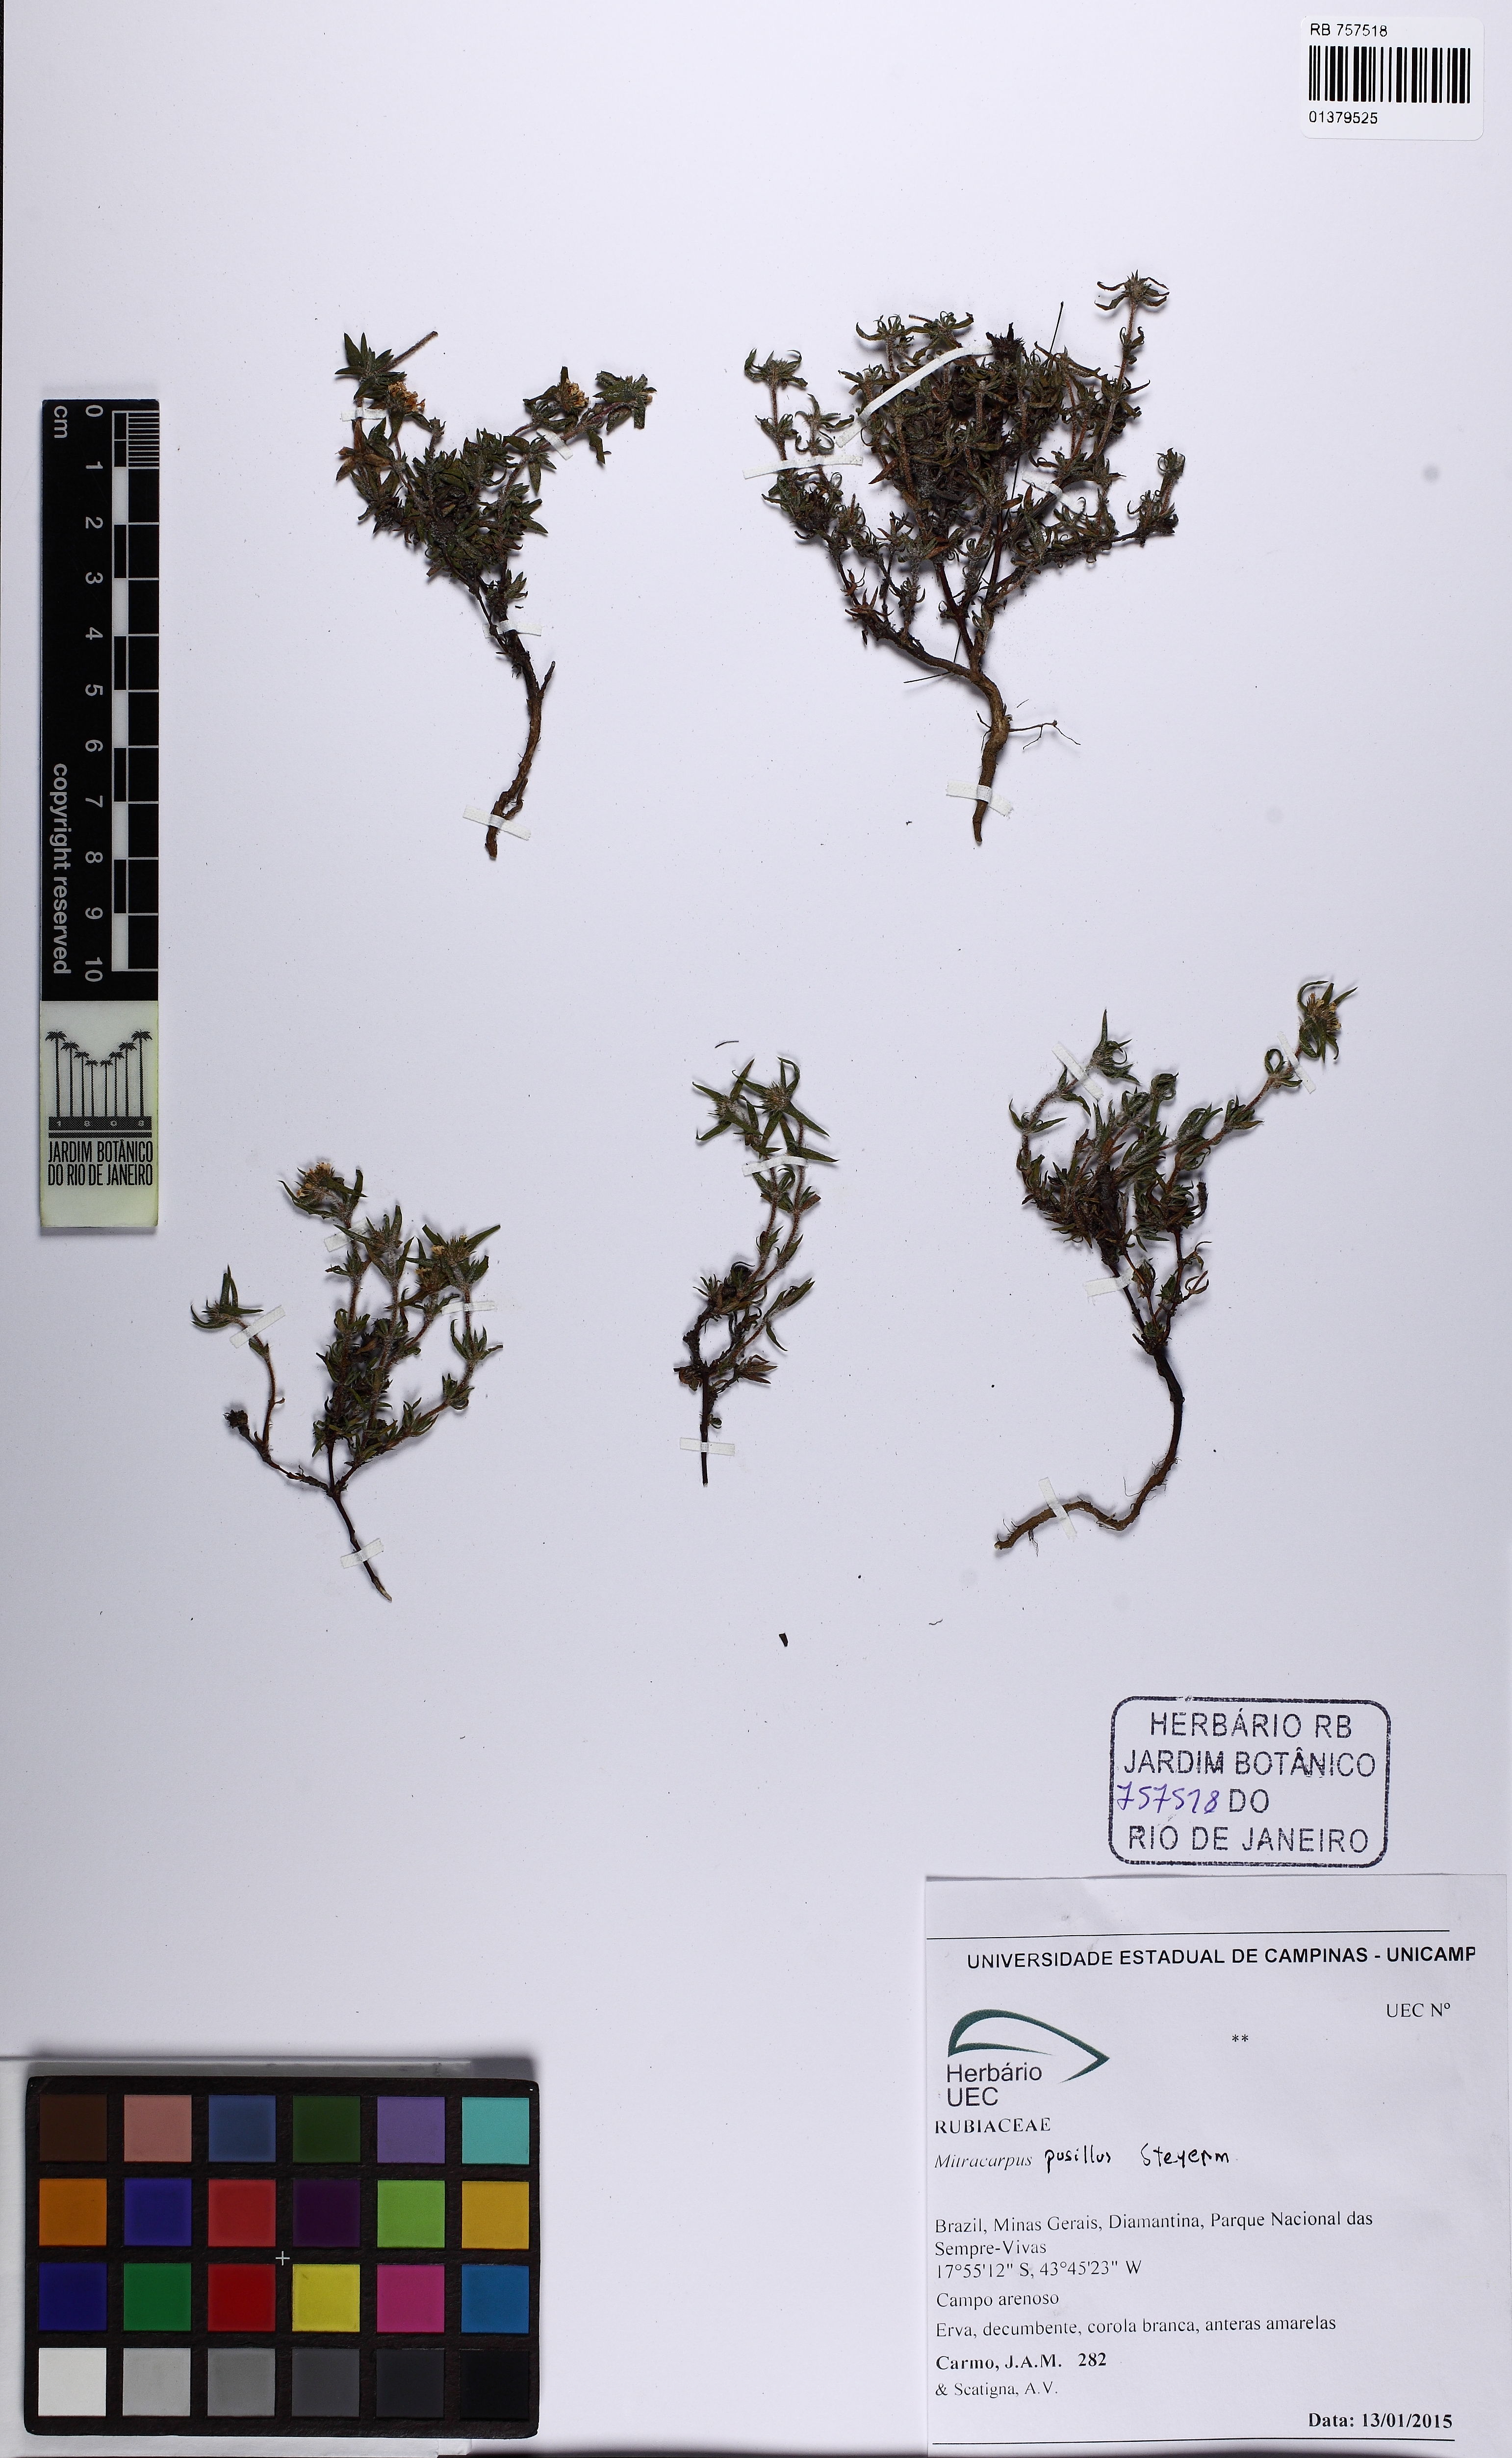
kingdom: Plantae
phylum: Tracheophyta
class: Magnoliopsida
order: Gentianales
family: Rubiaceae
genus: Mitracarpus
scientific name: Mitracarpus pusillus
